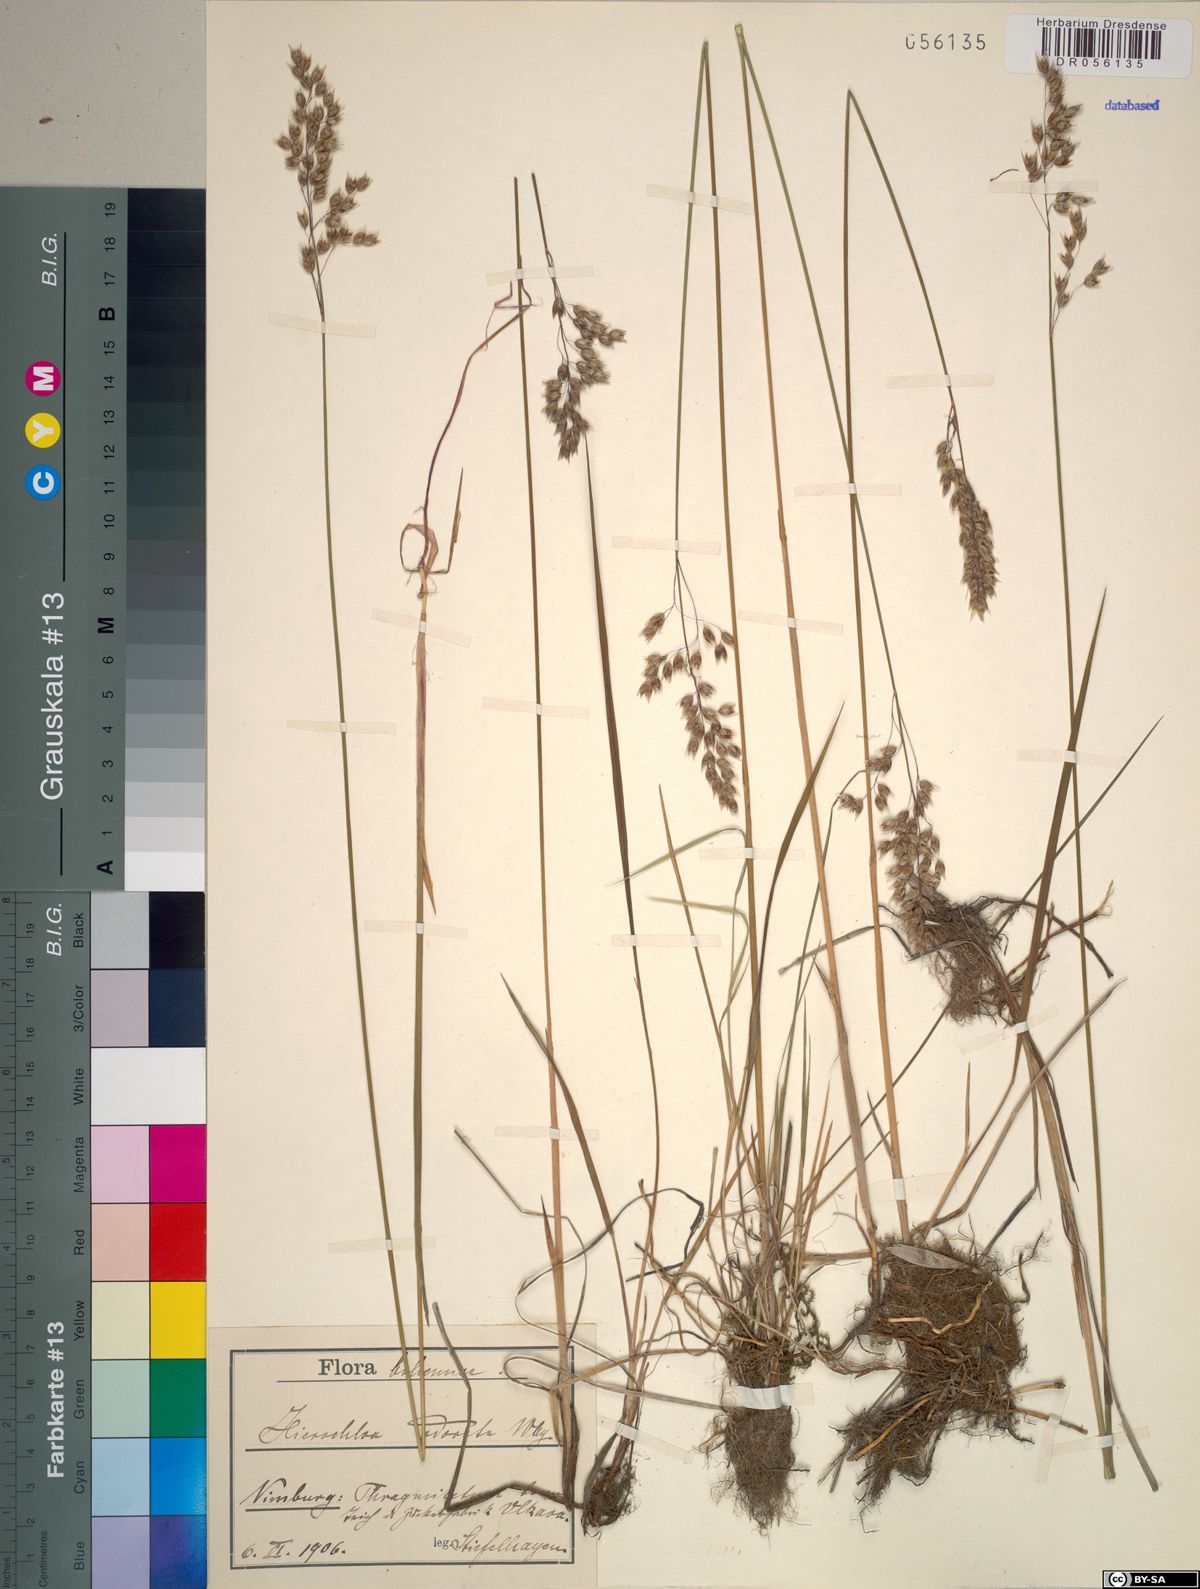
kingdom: Plantae
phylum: Tracheophyta
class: Liliopsida
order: Poales
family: Poaceae
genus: Anthoxanthum
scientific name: Anthoxanthum nitens
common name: Holy grass
